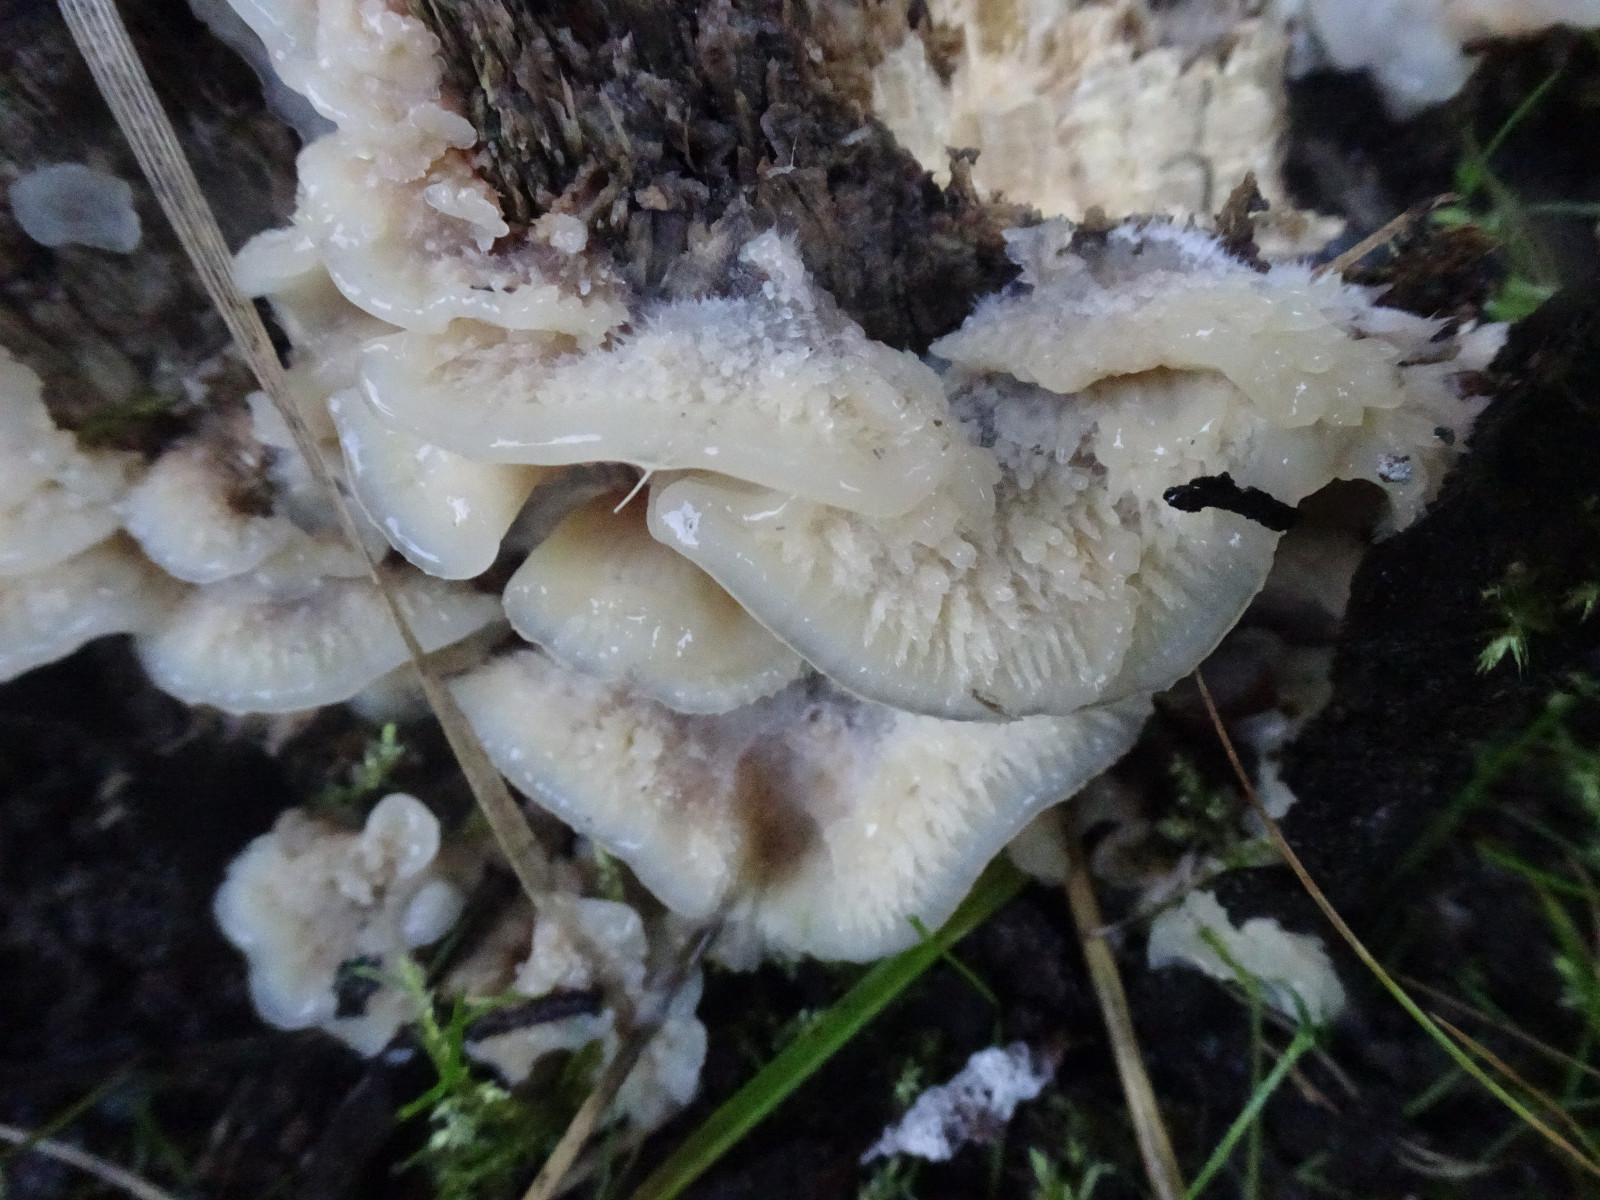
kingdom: Fungi
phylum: Basidiomycota
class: Agaricomycetes
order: Polyporales
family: Meruliaceae
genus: Phlebia
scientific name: Phlebia tremellosa
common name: bævrende åresvamp
